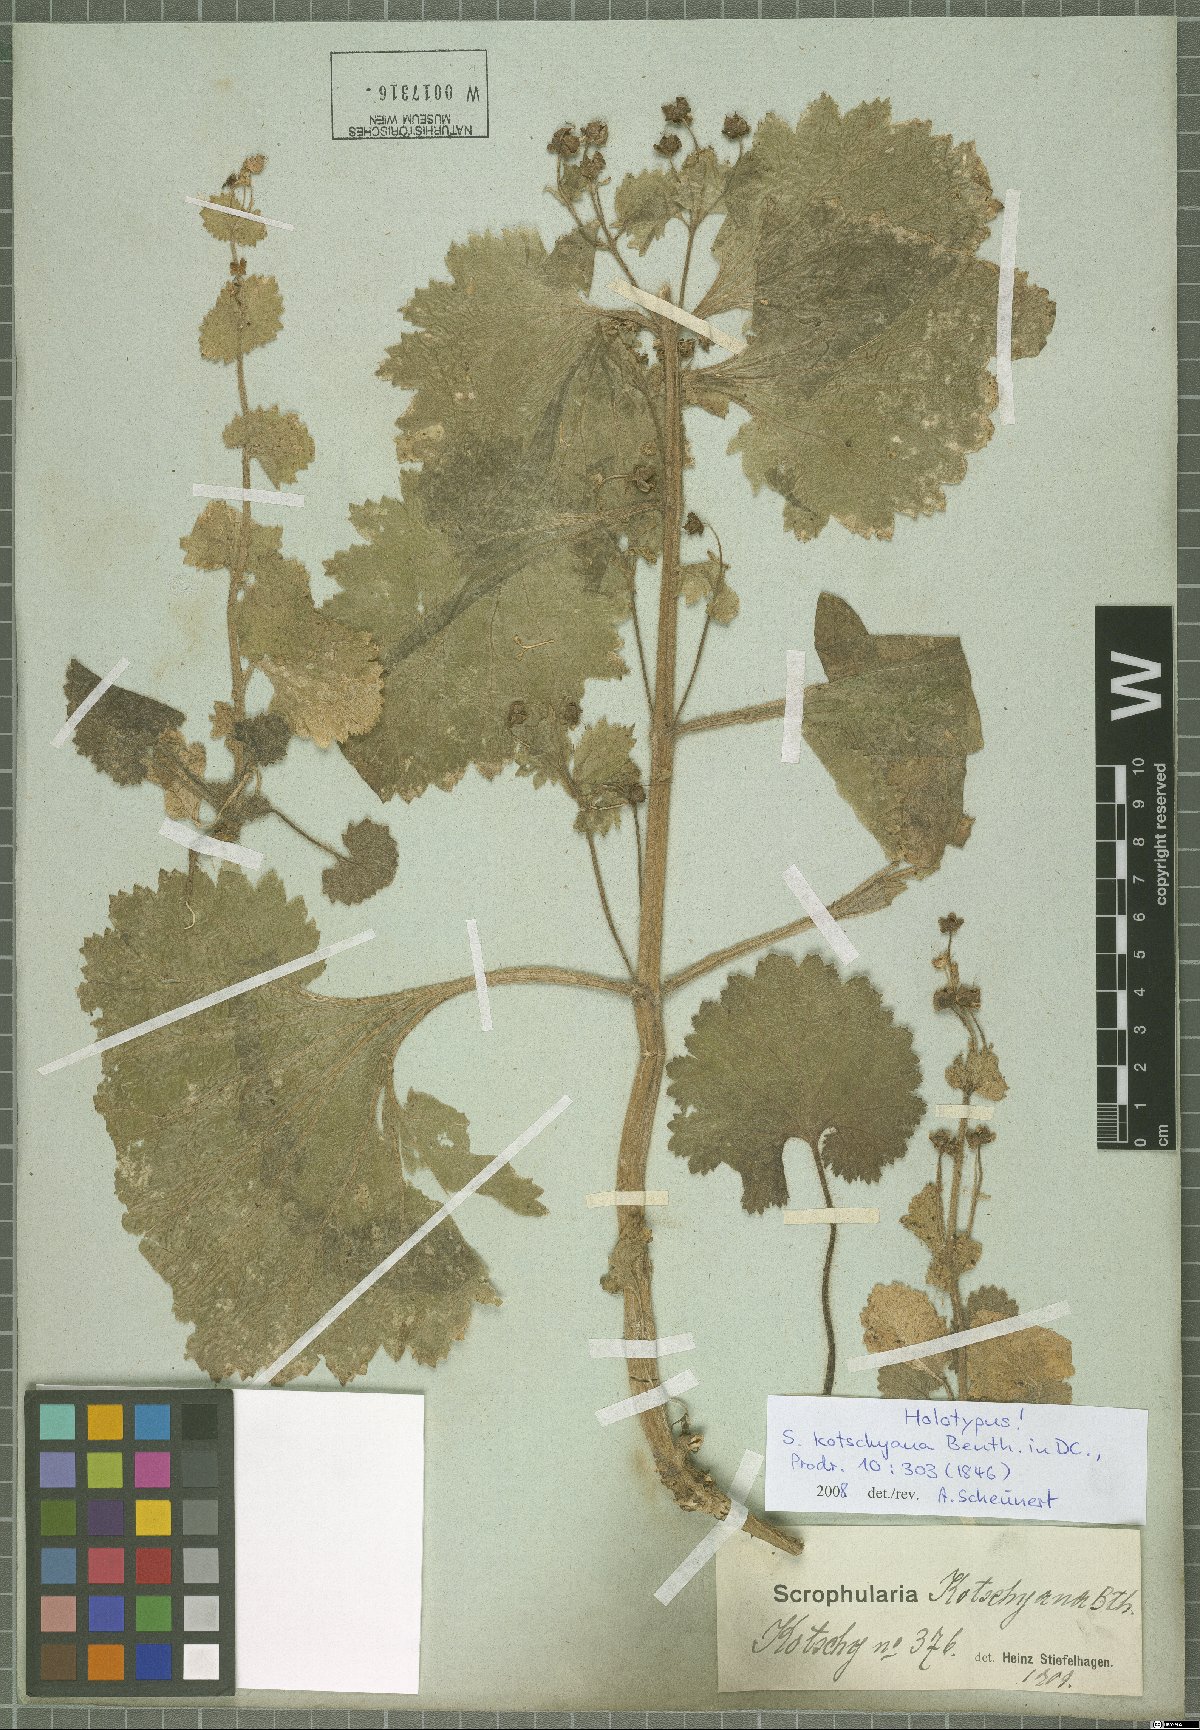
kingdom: Plantae
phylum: Tracheophyta
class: Magnoliopsida
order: Lamiales
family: Scrophulariaceae
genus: Scrophularia
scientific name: Scrophularia kotschyana
